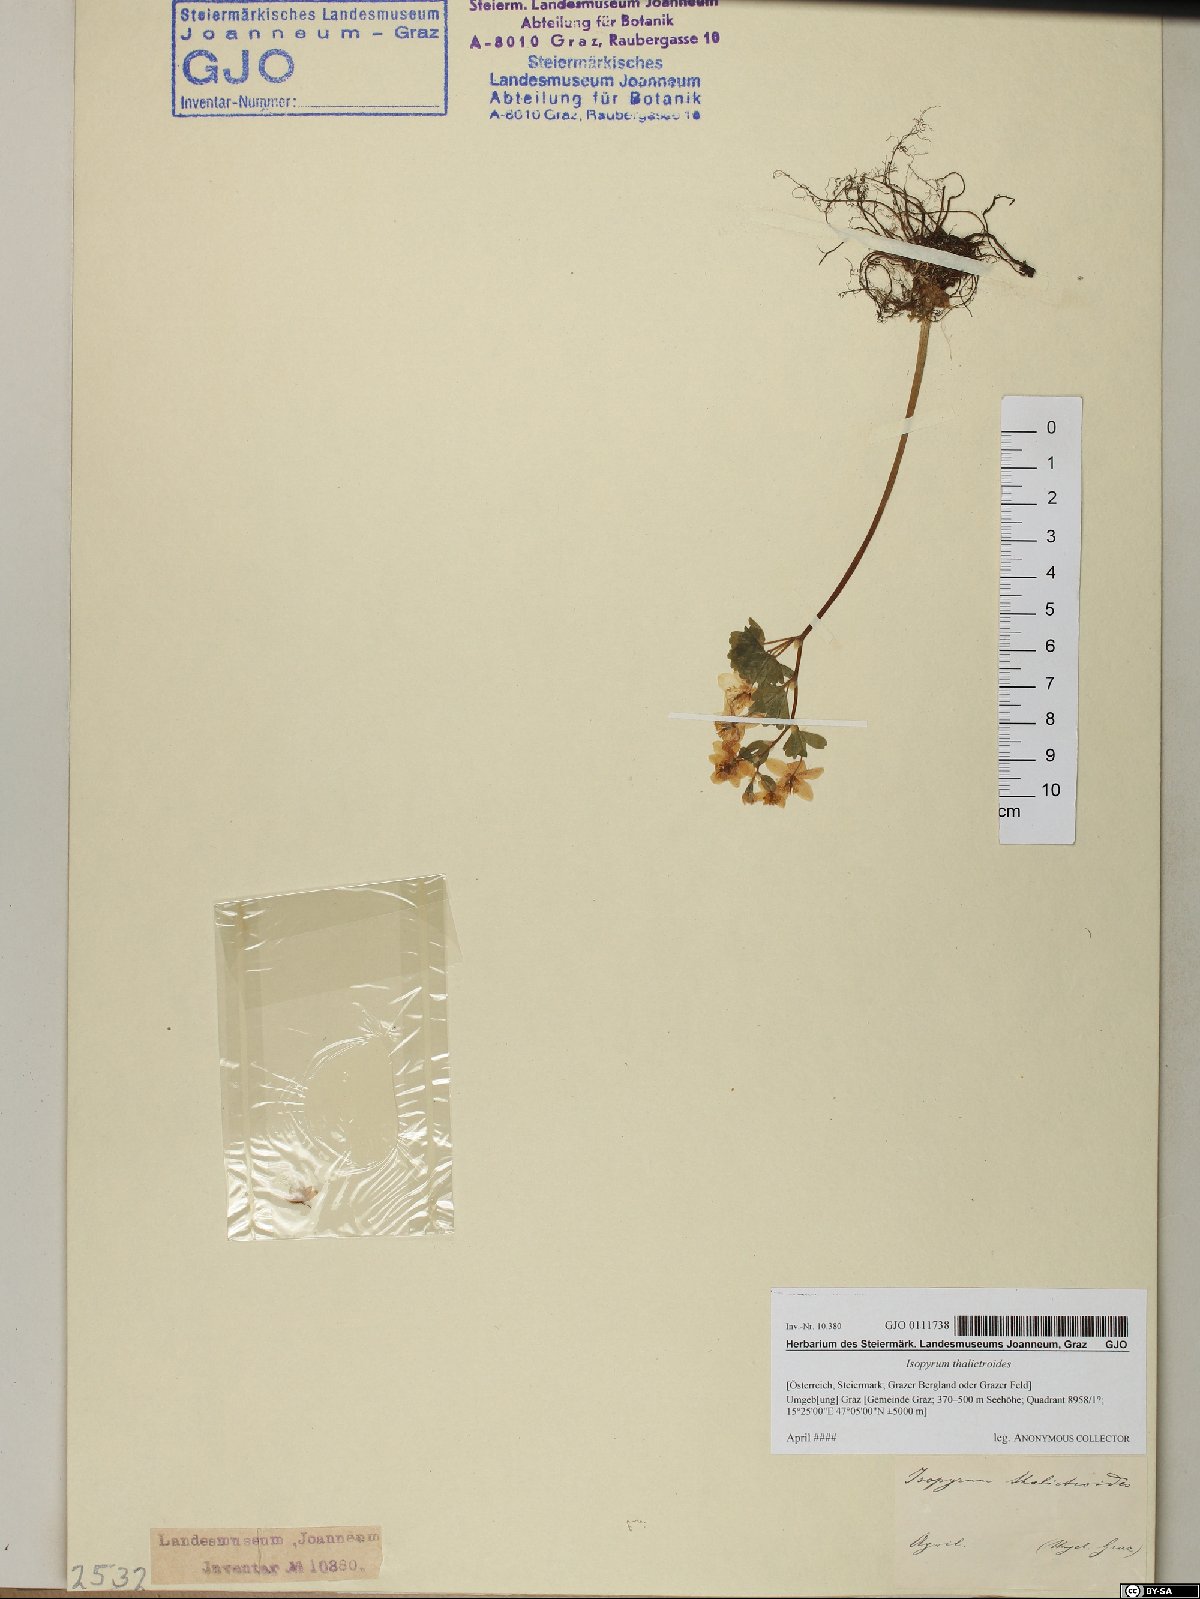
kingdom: Plantae
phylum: Tracheophyta
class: Magnoliopsida
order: Ranunculales
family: Ranunculaceae
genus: Isopyrum
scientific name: Isopyrum thalictroides
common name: Isopyrum
